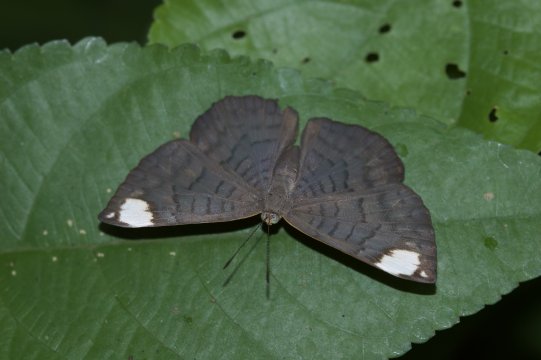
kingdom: Animalia
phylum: Arthropoda
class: Insecta
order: Lepidoptera
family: Lycaenidae
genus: Emesis
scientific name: Emesis lucinda
